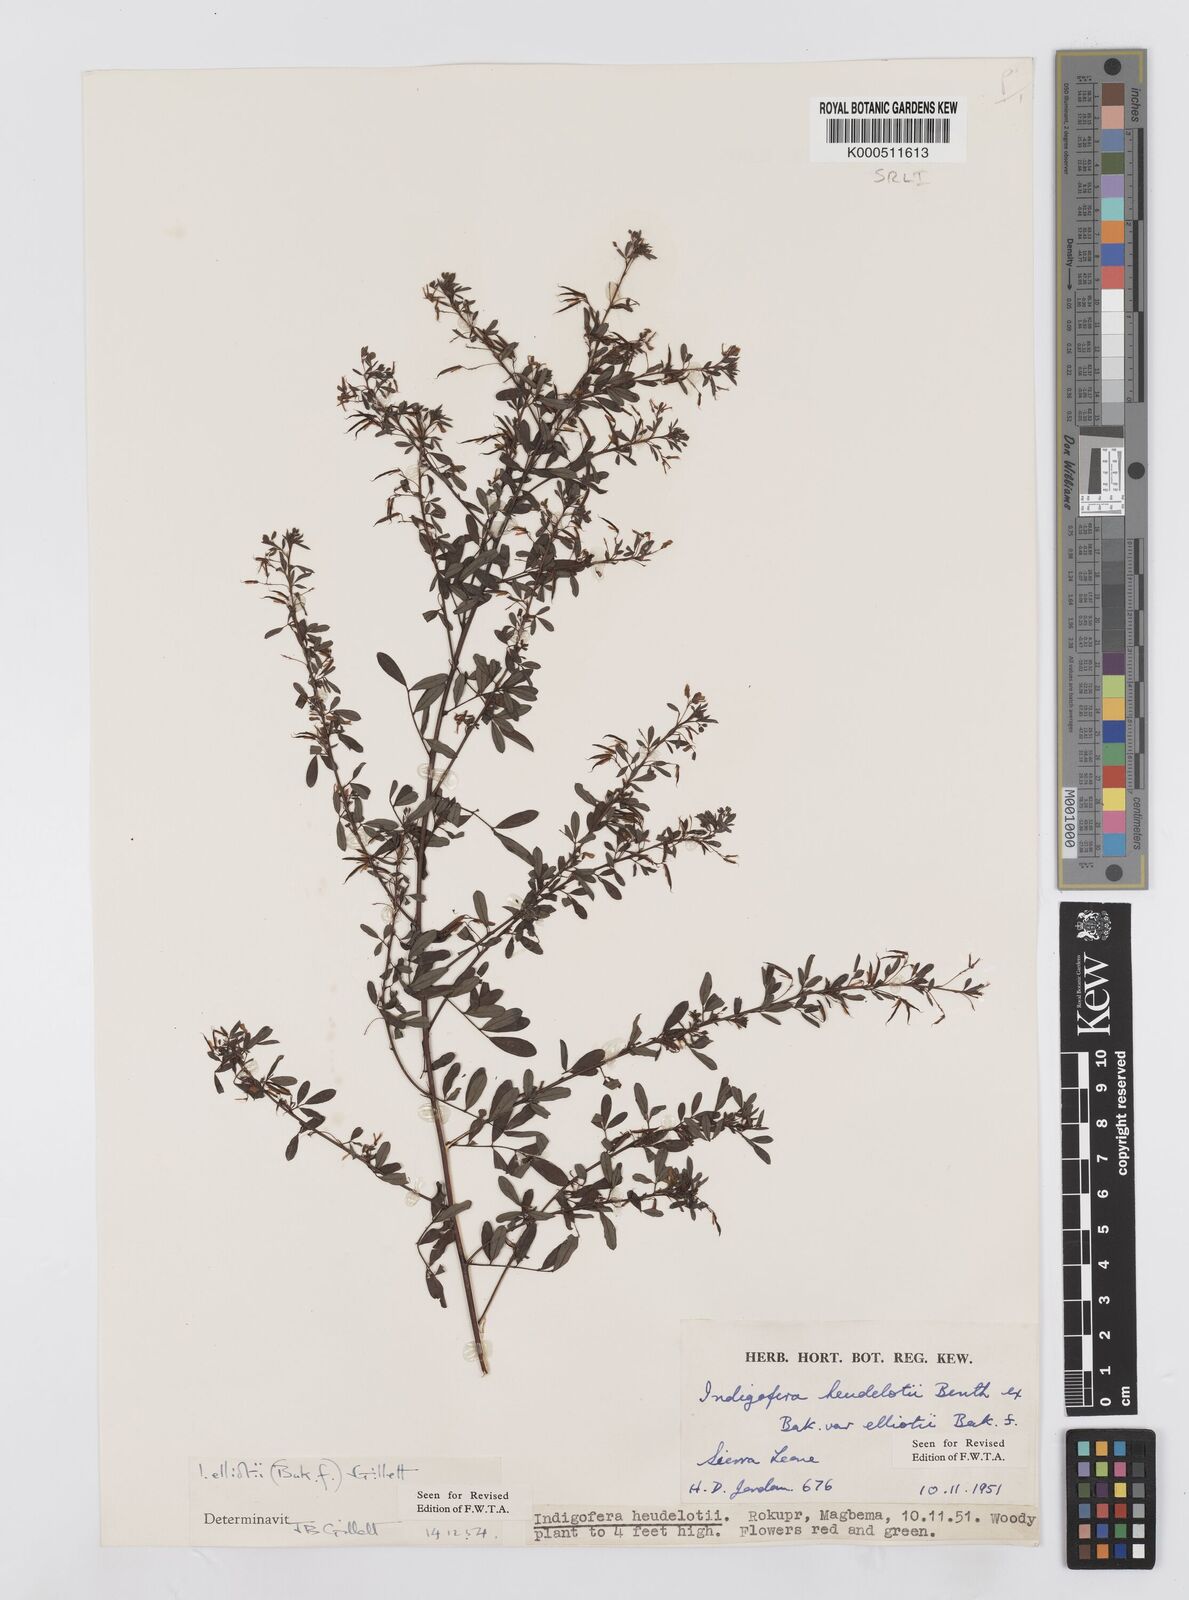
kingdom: Plantae
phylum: Tracheophyta
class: Magnoliopsida
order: Fabales
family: Fabaceae
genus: Indigofera
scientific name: Indigofera elliotii
